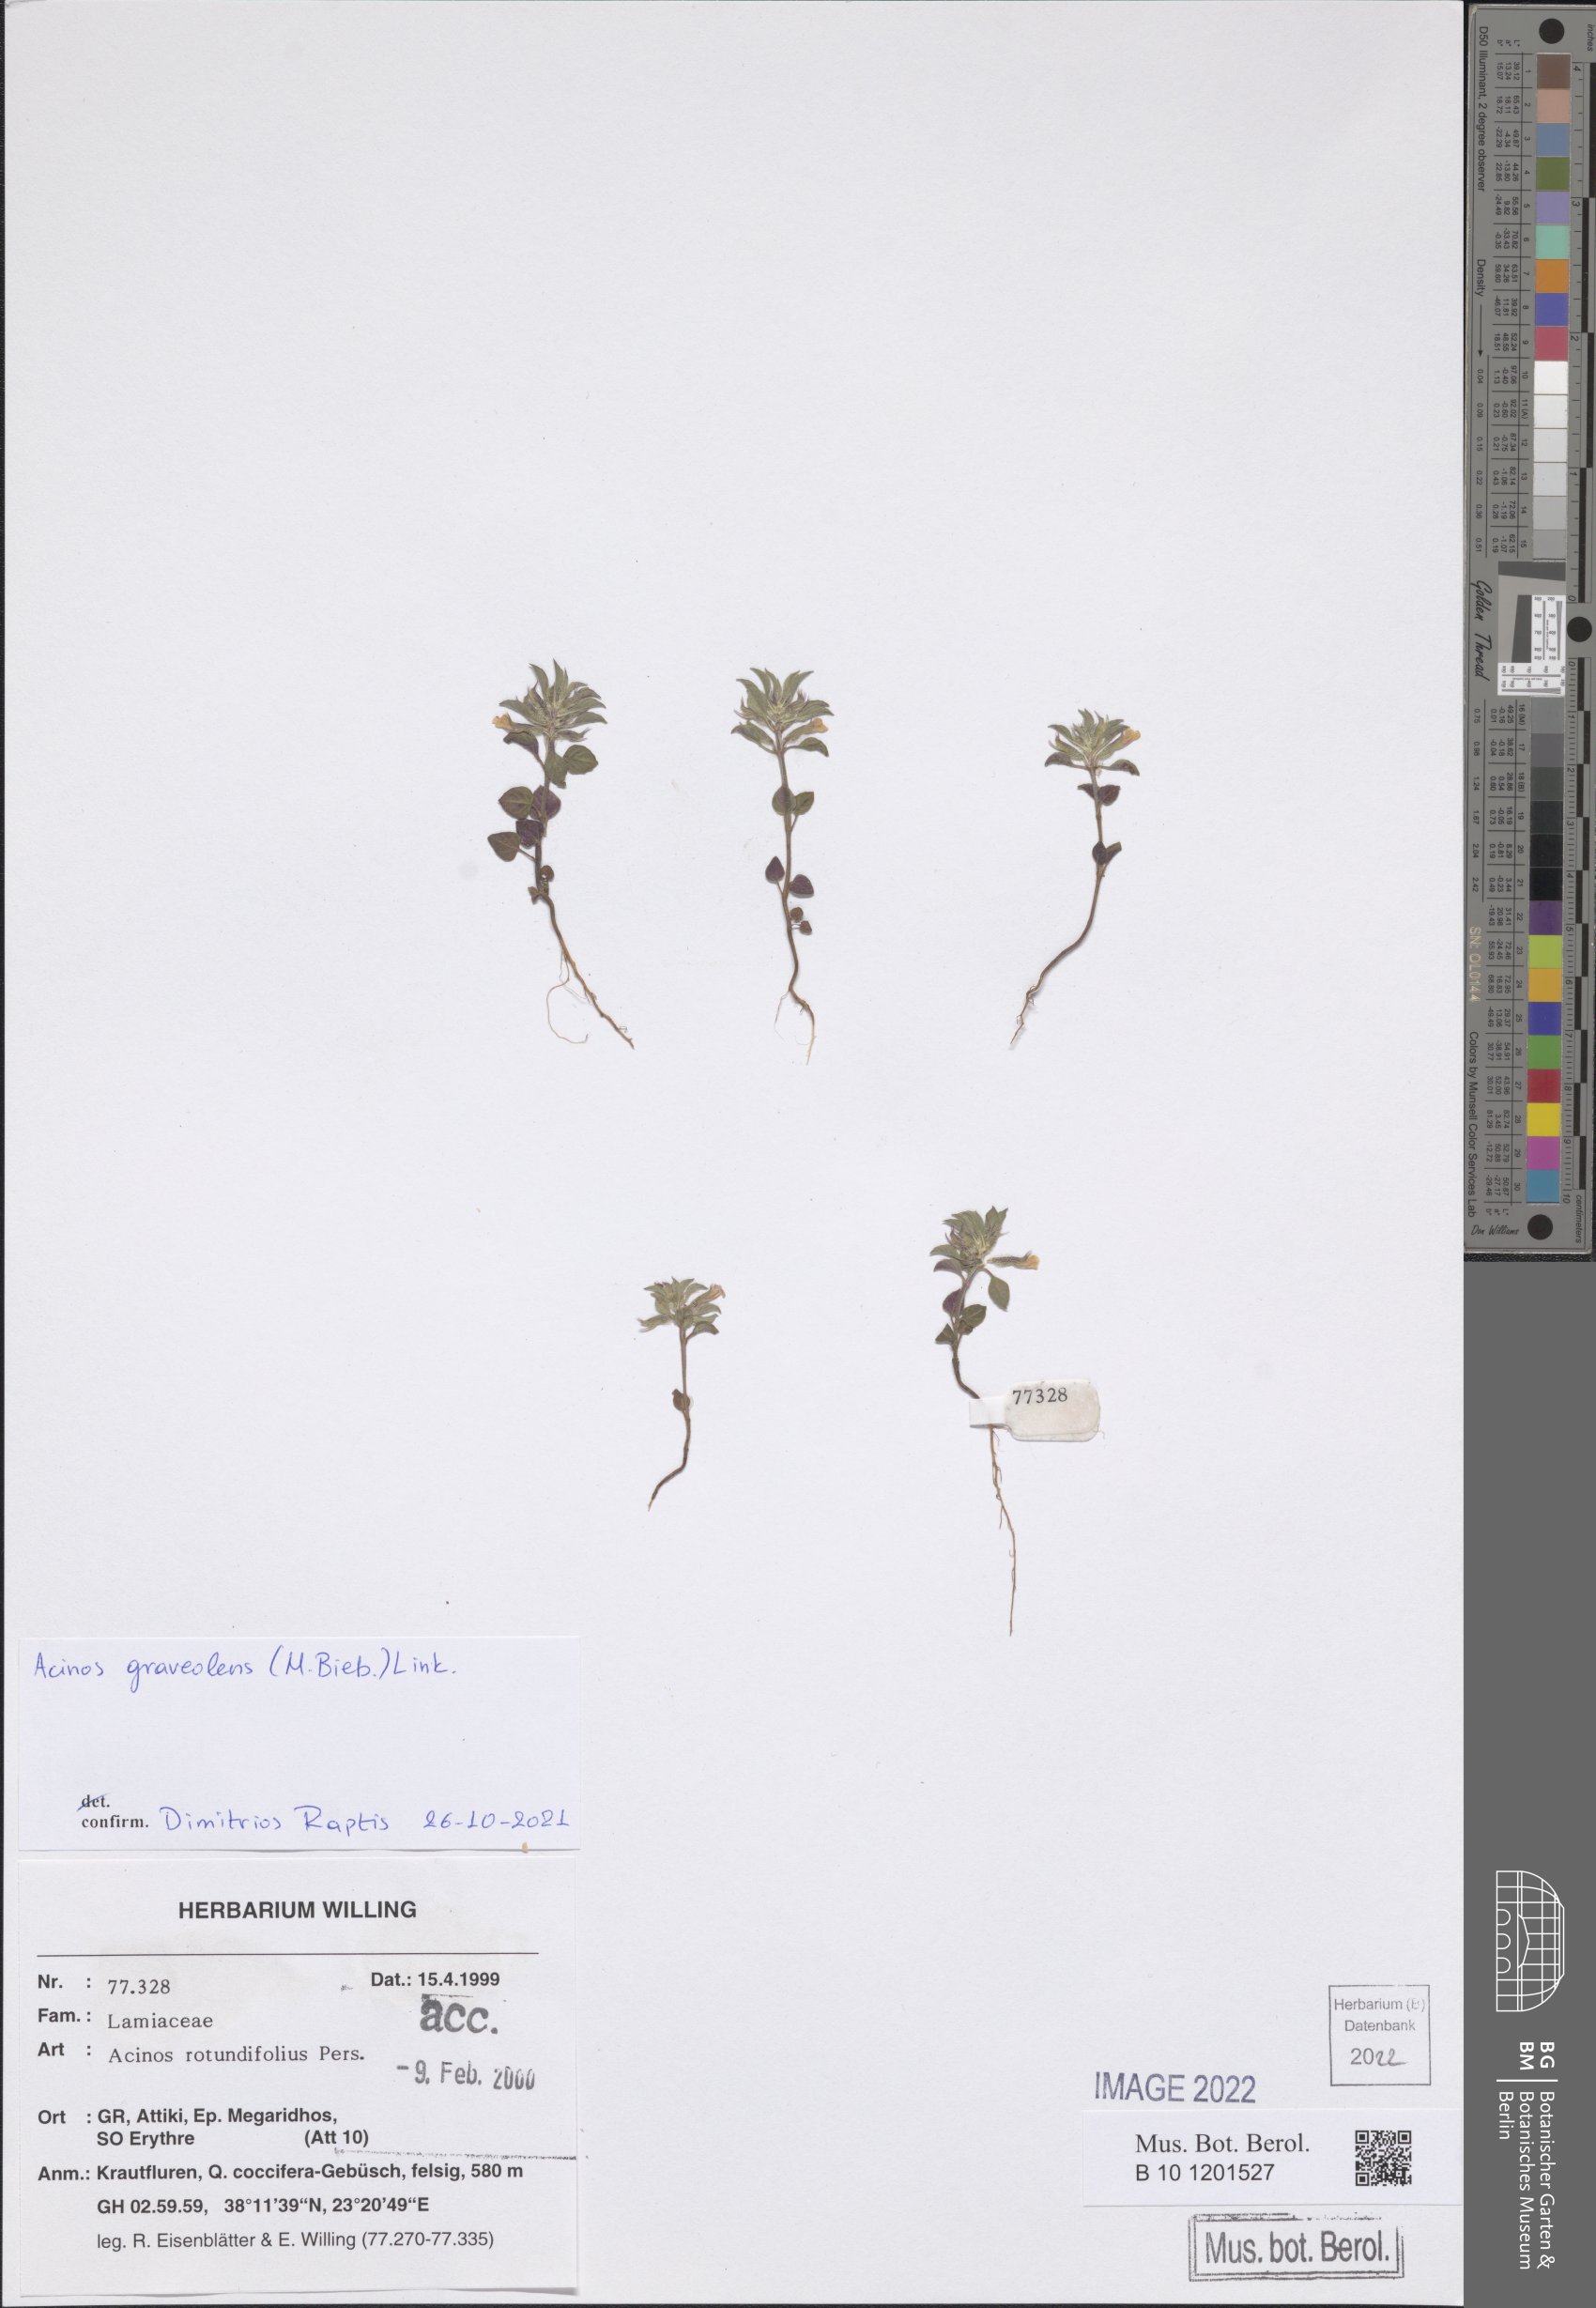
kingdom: Plantae
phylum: Tracheophyta
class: Magnoliopsida
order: Lamiales
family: Lamiaceae
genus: Clinopodium
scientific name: Clinopodium graveolens
